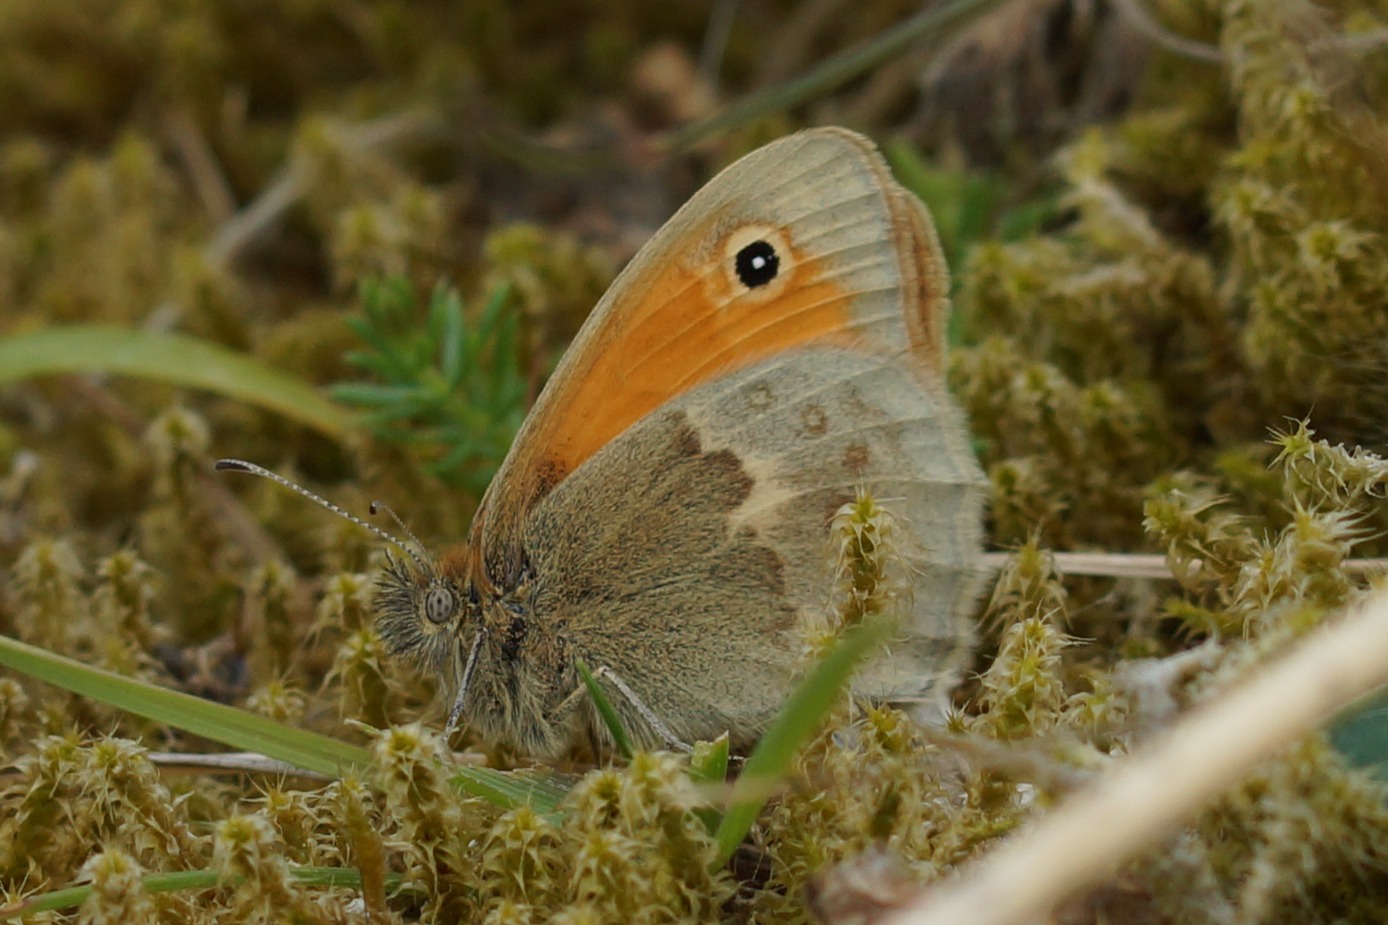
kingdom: Animalia
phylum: Arthropoda
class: Insecta
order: Lepidoptera
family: Nymphalidae
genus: Coenonympha
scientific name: Coenonympha pamphilus
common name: Okkergul randøje
